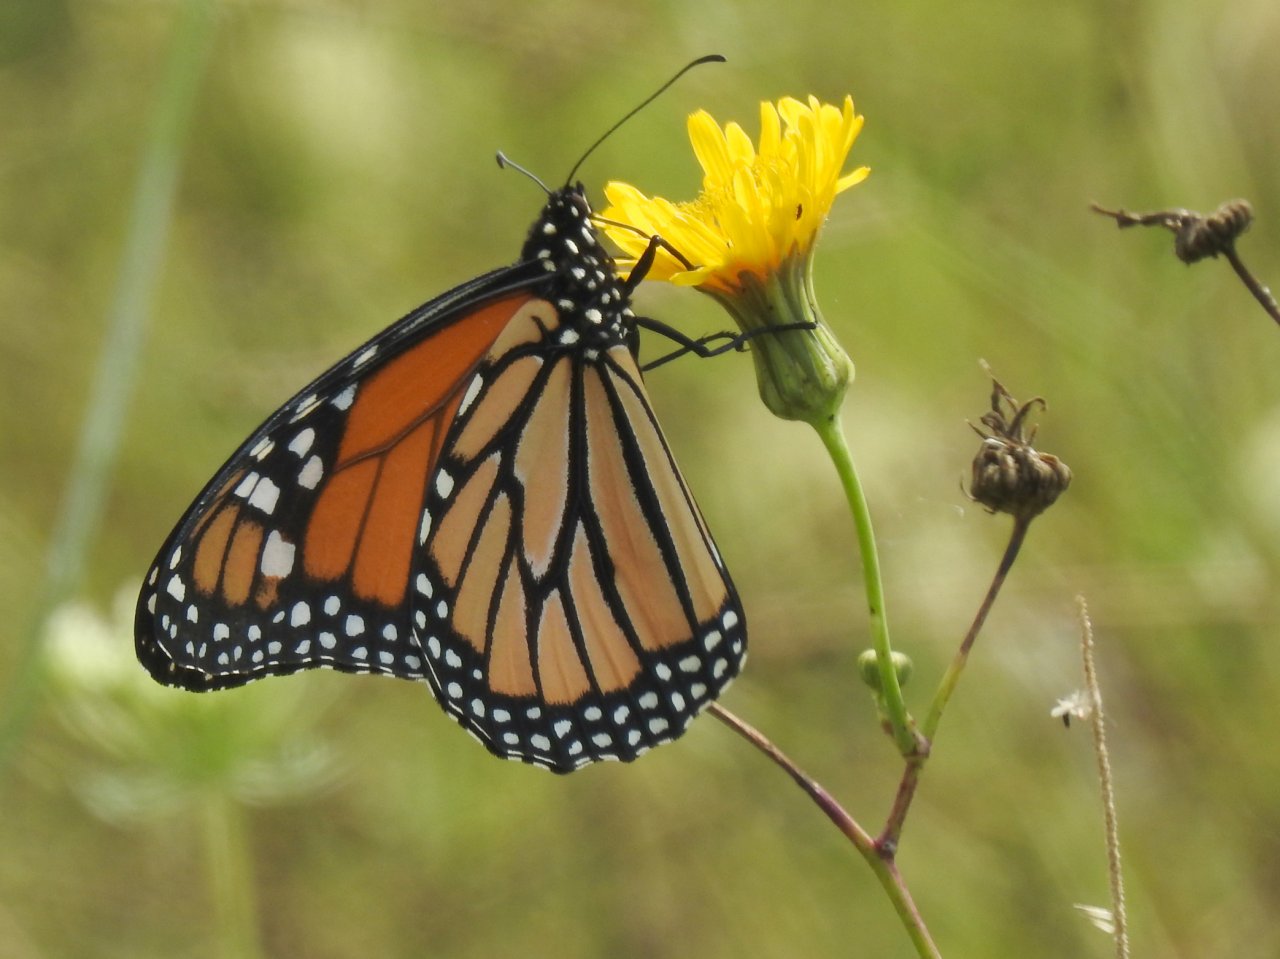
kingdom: Animalia
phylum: Arthropoda
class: Insecta
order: Lepidoptera
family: Nymphalidae
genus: Danaus
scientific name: Danaus plexippus
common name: Monarch
